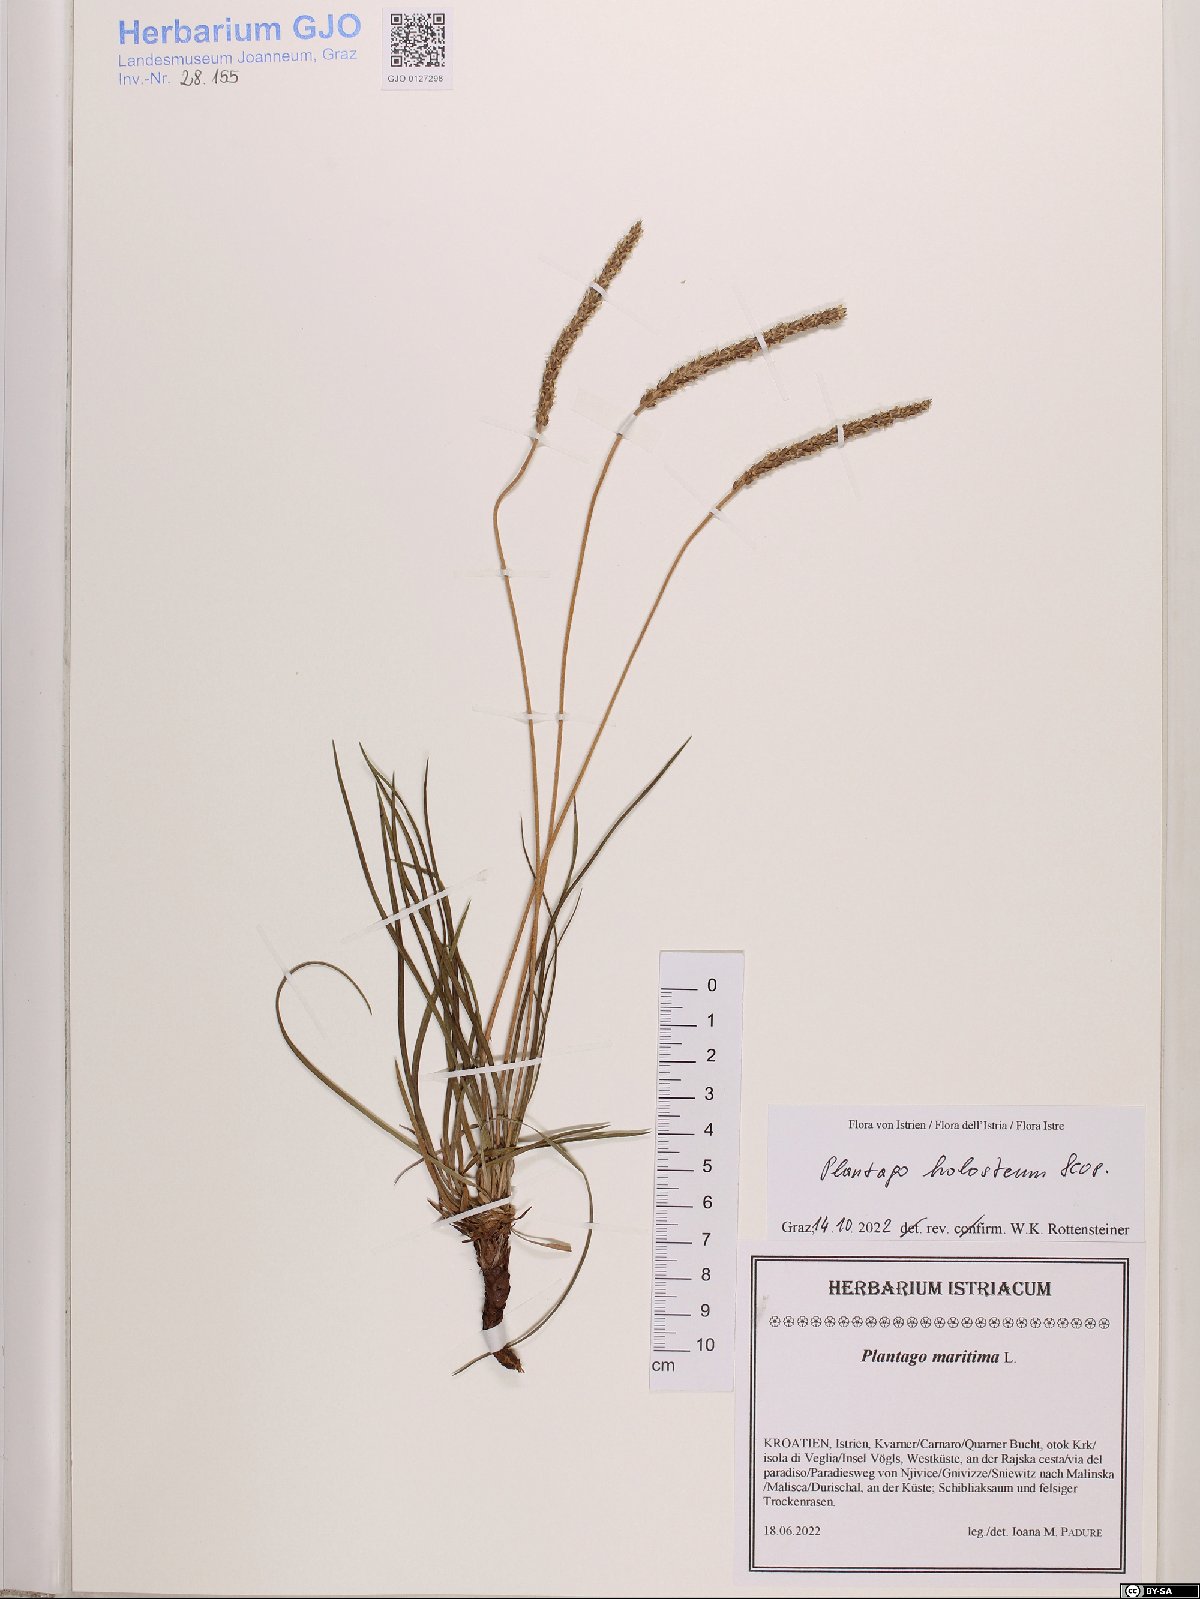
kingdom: Plantae
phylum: Tracheophyta
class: Magnoliopsida
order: Lamiales
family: Plantaginaceae
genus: Plantago
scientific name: Plantago subulata
